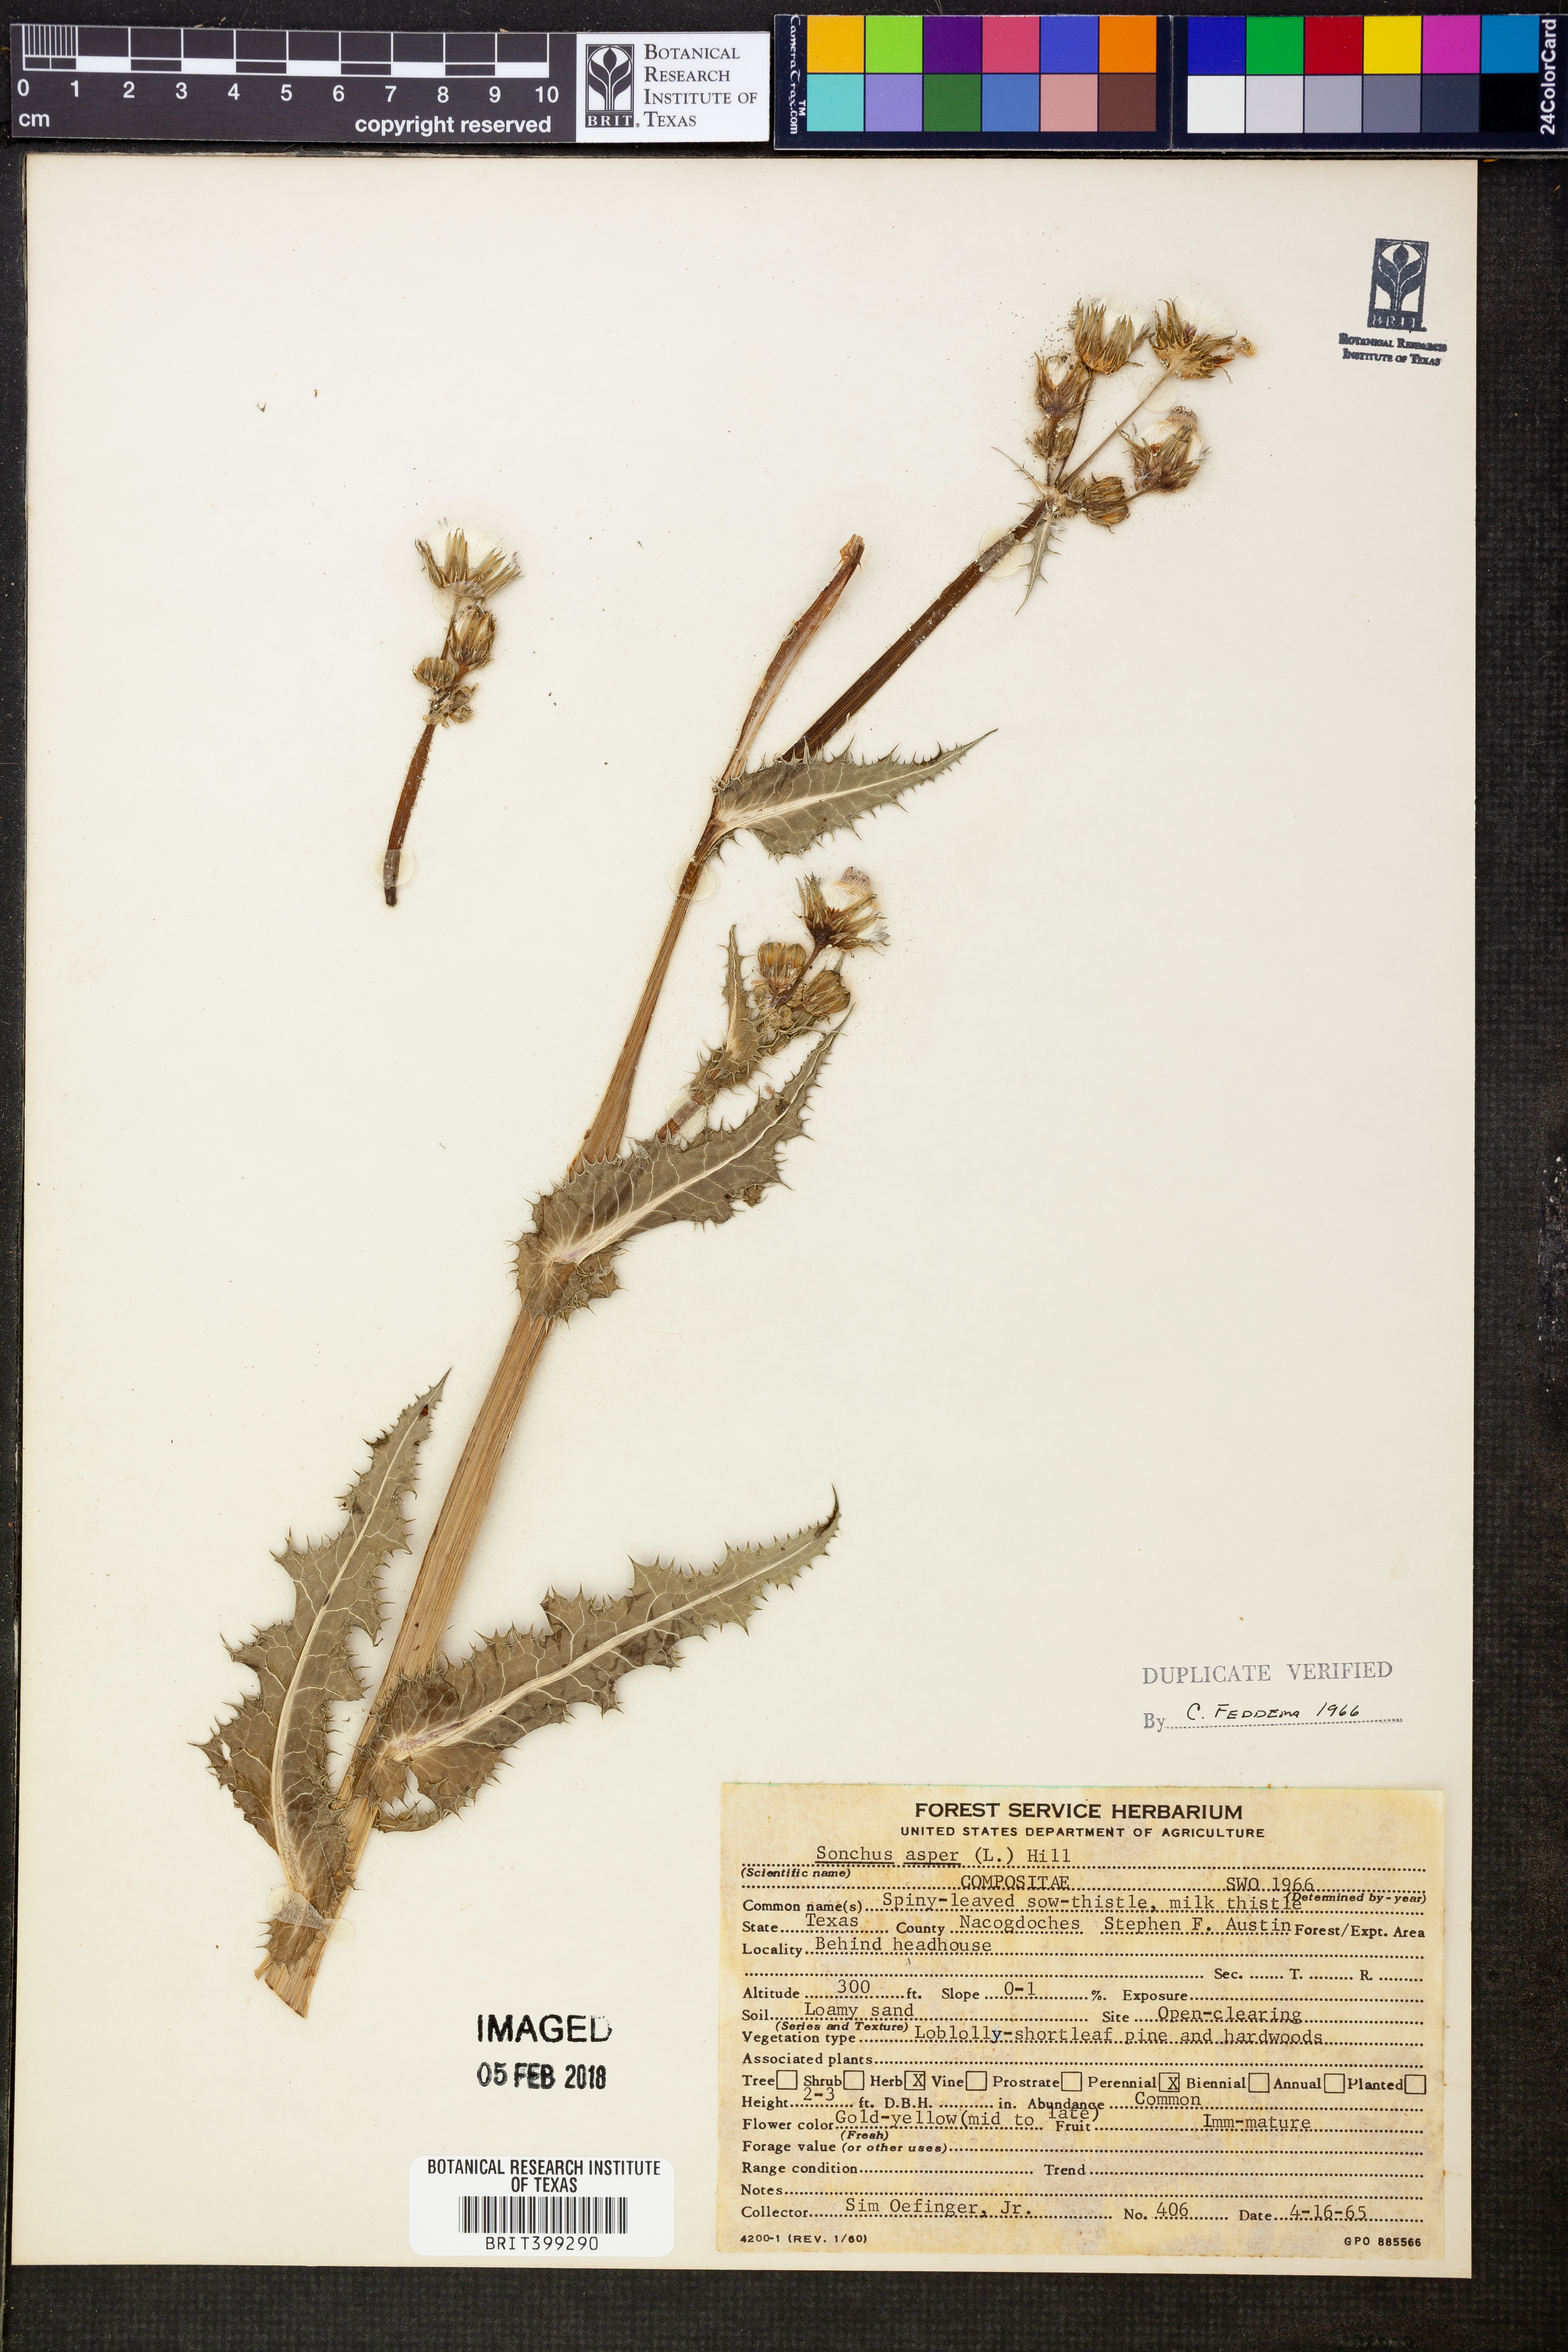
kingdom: Plantae
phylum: Tracheophyta
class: Magnoliopsida
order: Asterales
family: Asteraceae
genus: Sonchus
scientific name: Sonchus asper
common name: Prickly sow-thistle
